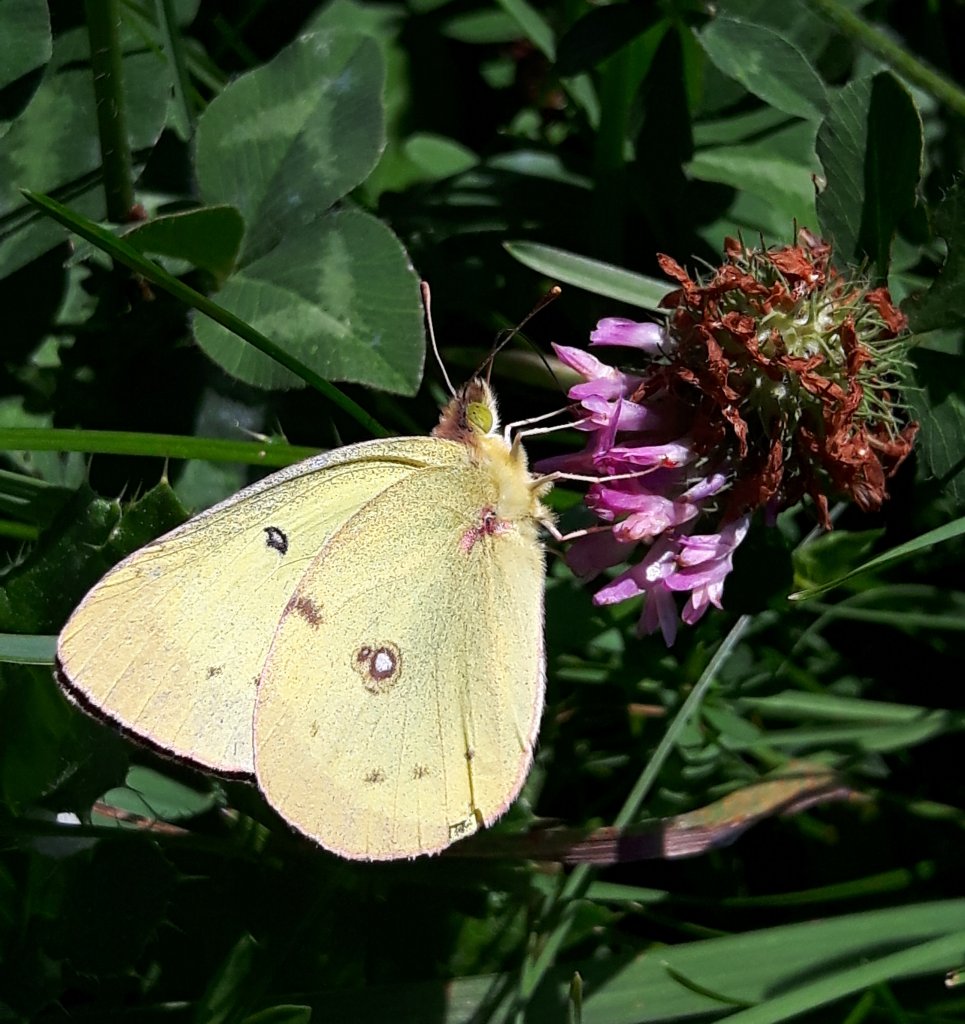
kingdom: Animalia
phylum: Arthropoda
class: Insecta
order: Lepidoptera
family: Pieridae
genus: Colias
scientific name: Colias philodice
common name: Clouded Sulphur
